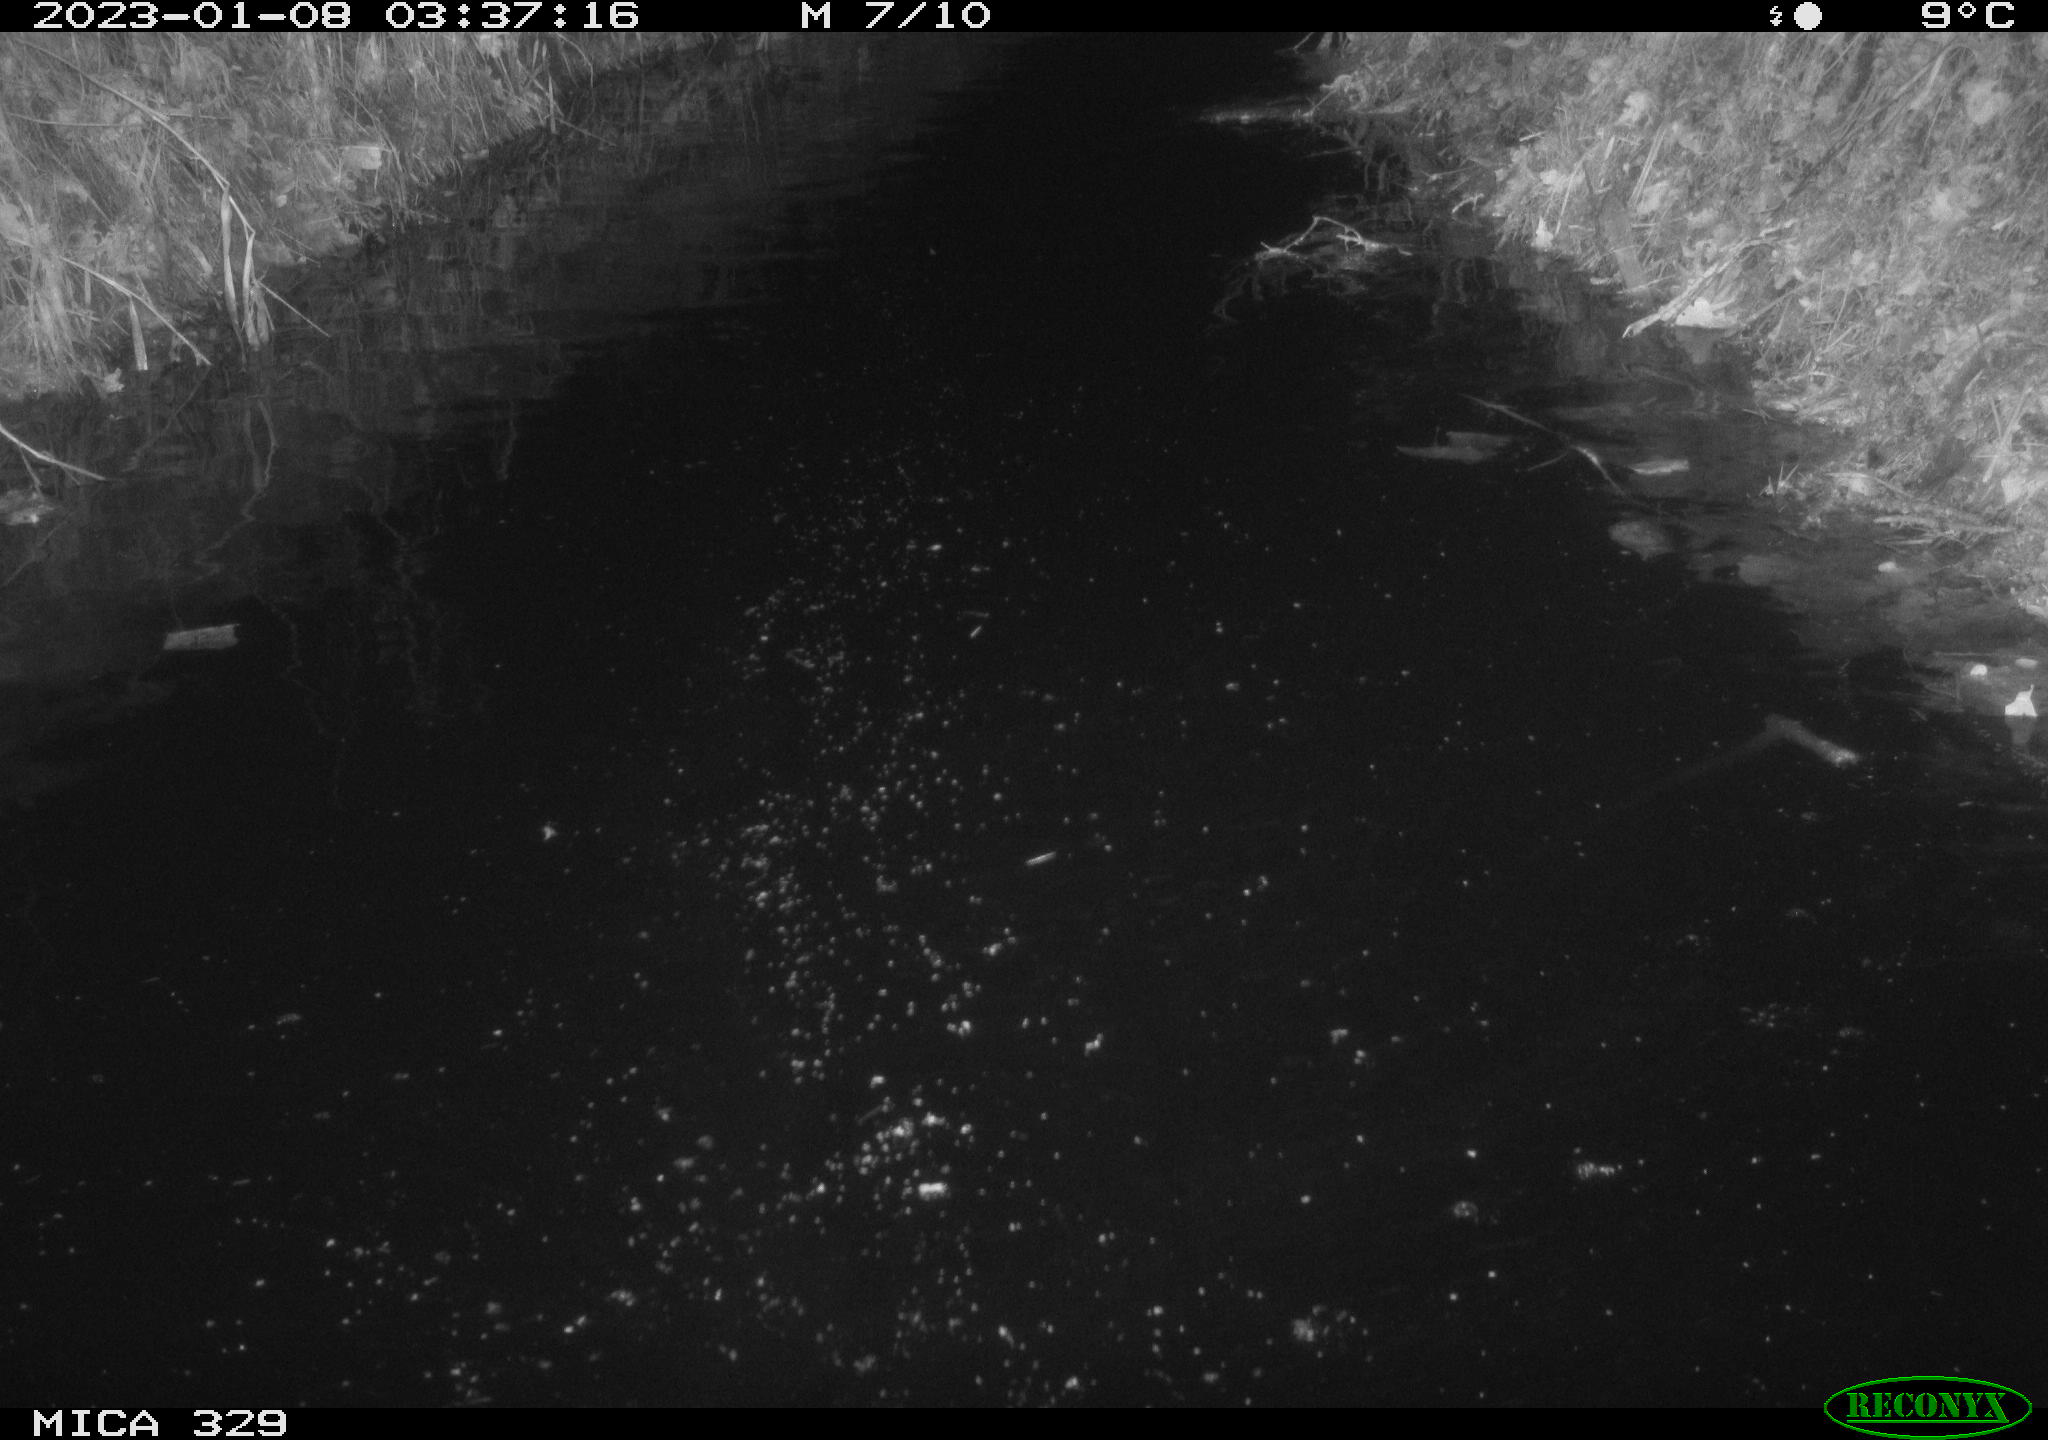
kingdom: Animalia
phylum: Chordata
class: Mammalia
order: Rodentia
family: Cricetidae
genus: Ondatra
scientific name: Ondatra zibethicus
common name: Muskrat
